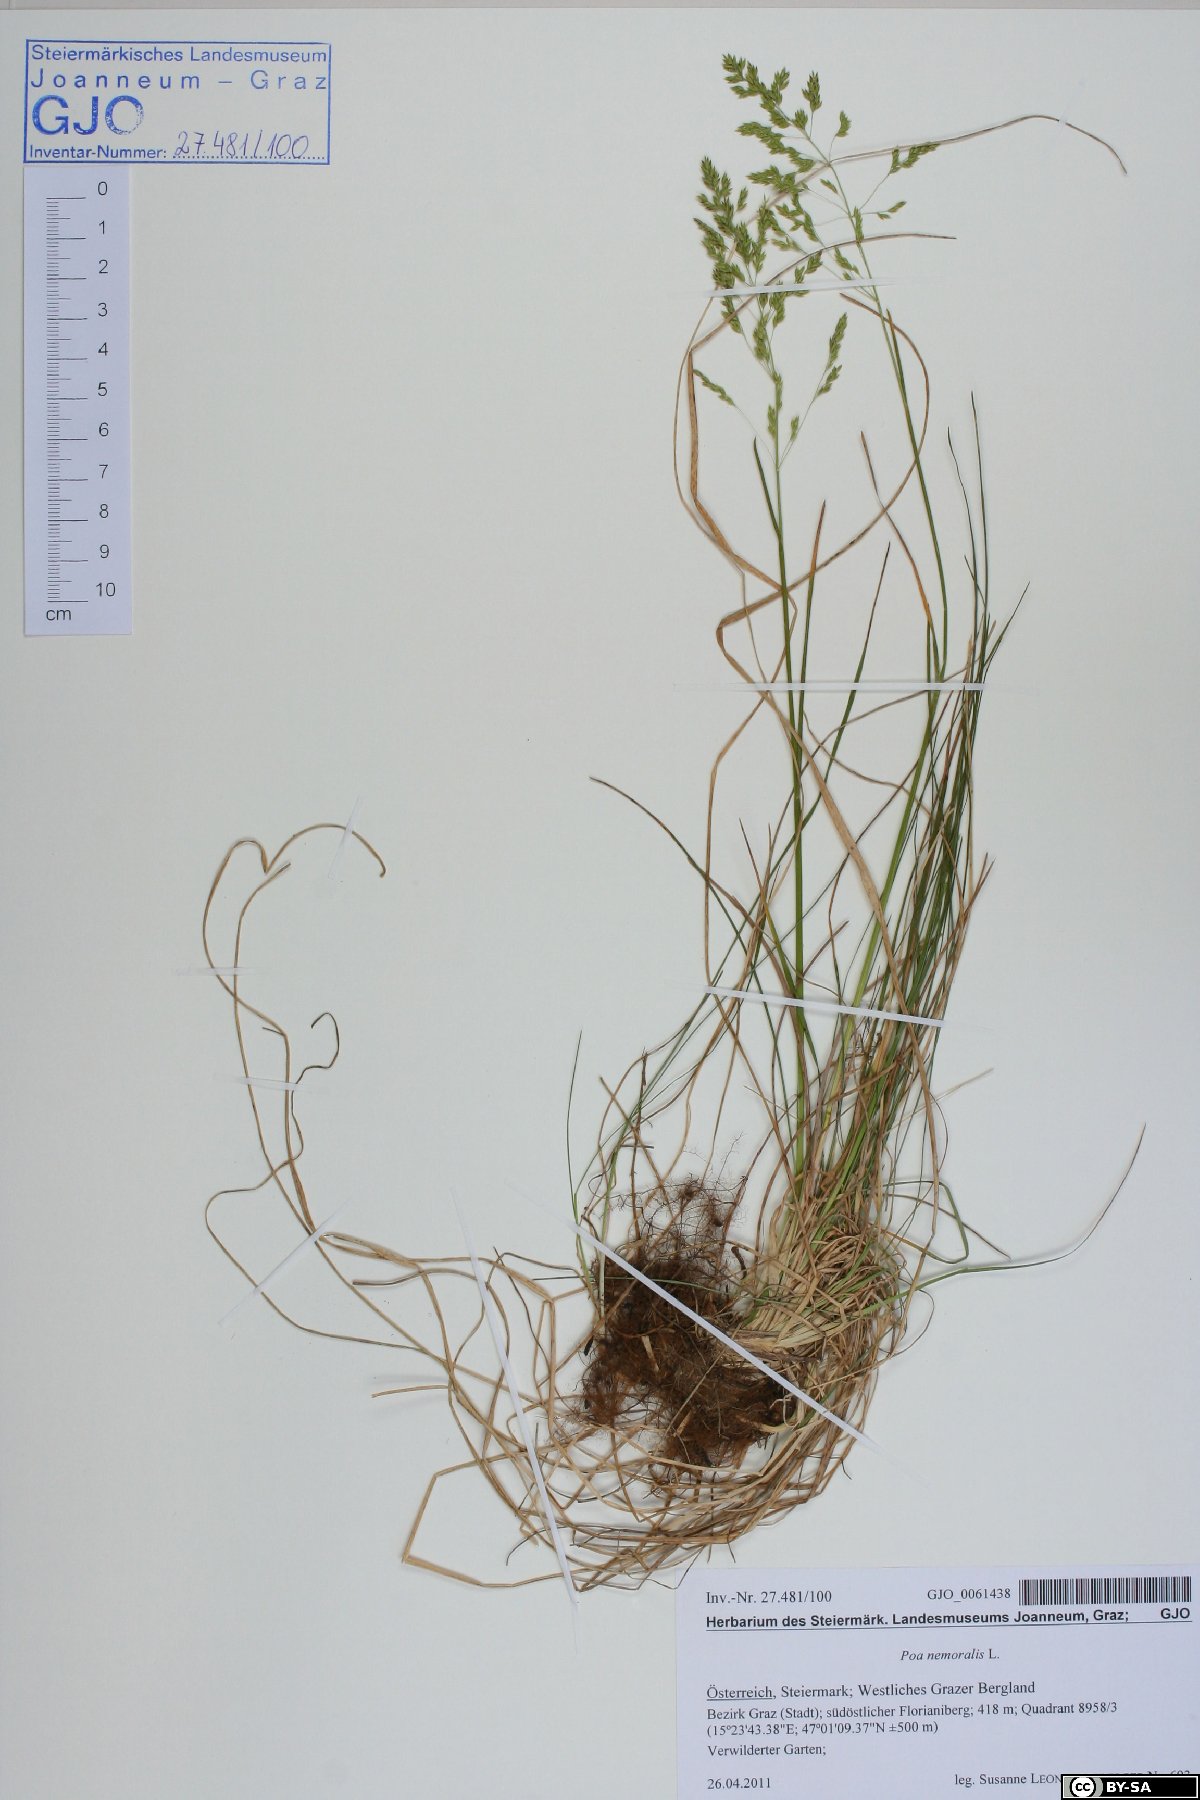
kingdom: Plantae
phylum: Tracheophyta
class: Liliopsida
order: Poales
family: Poaceae
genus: Poa
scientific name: Poa angustifolia
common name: Narrow-leaved meadow-grass
